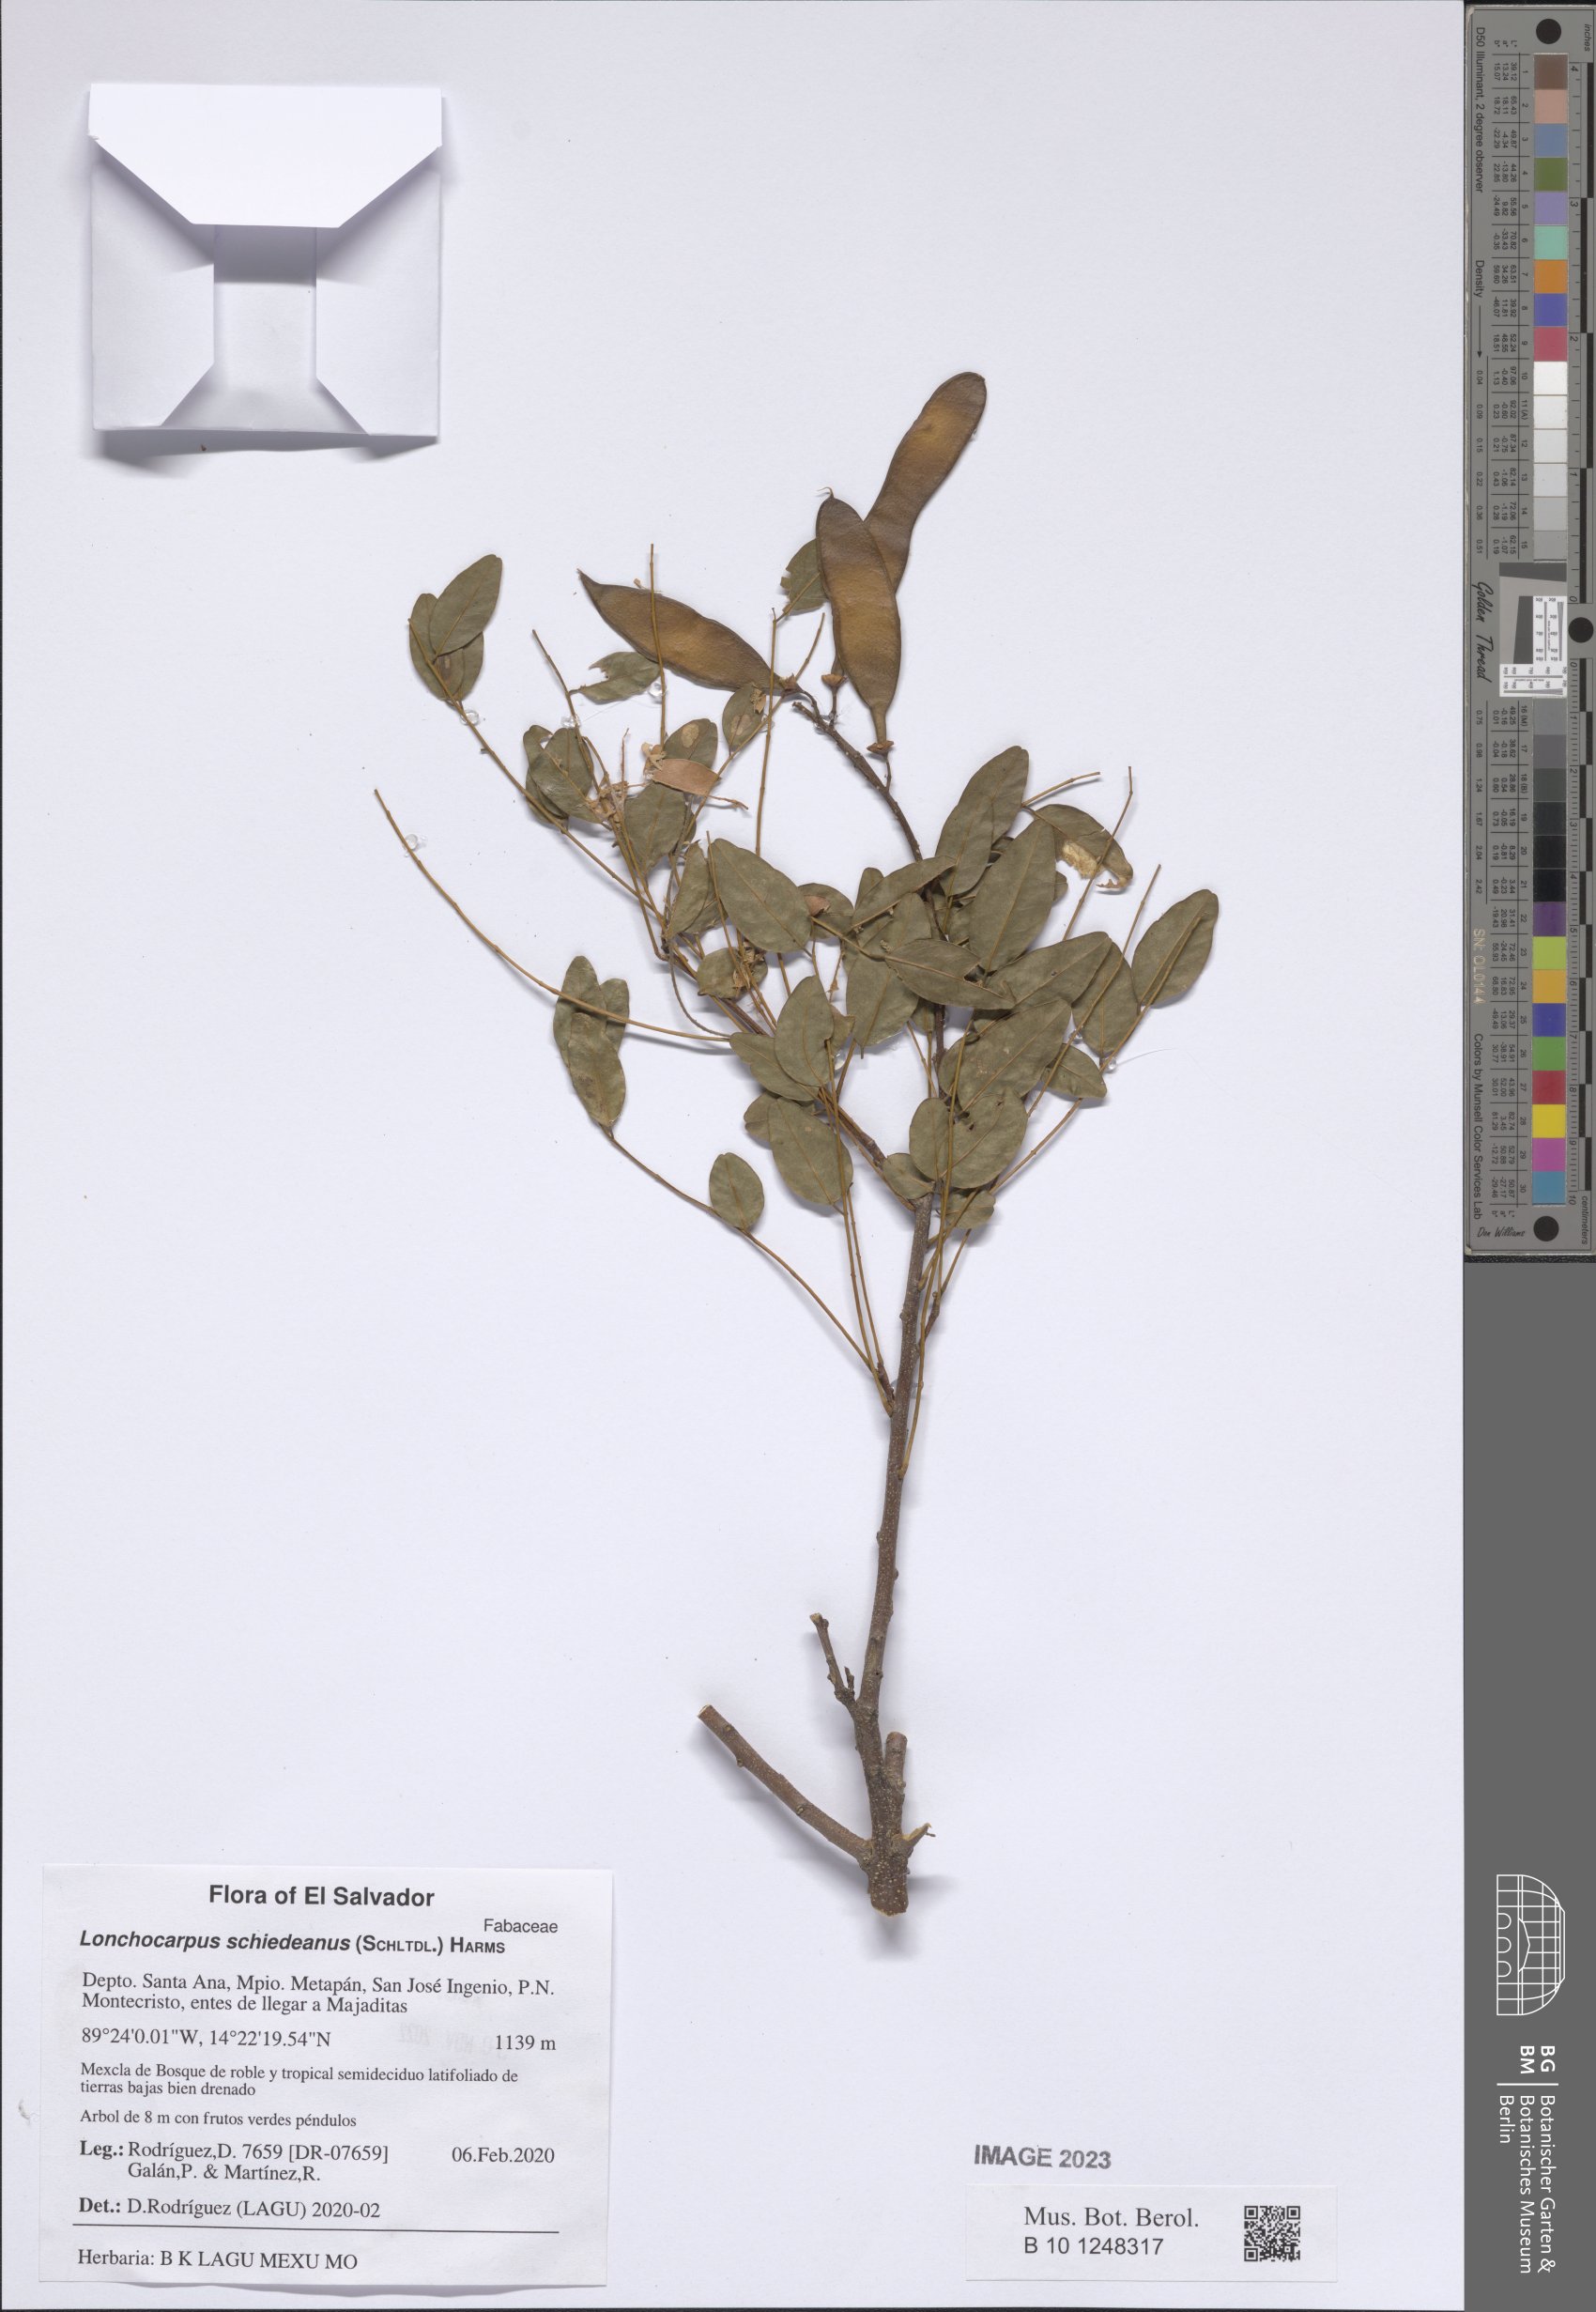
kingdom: Plantae
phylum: Tracheophyta
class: Magnoliopsida
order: Fabales
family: Fabaceae
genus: Lonchocarpus
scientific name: Lonchocarpus schiedeanus
